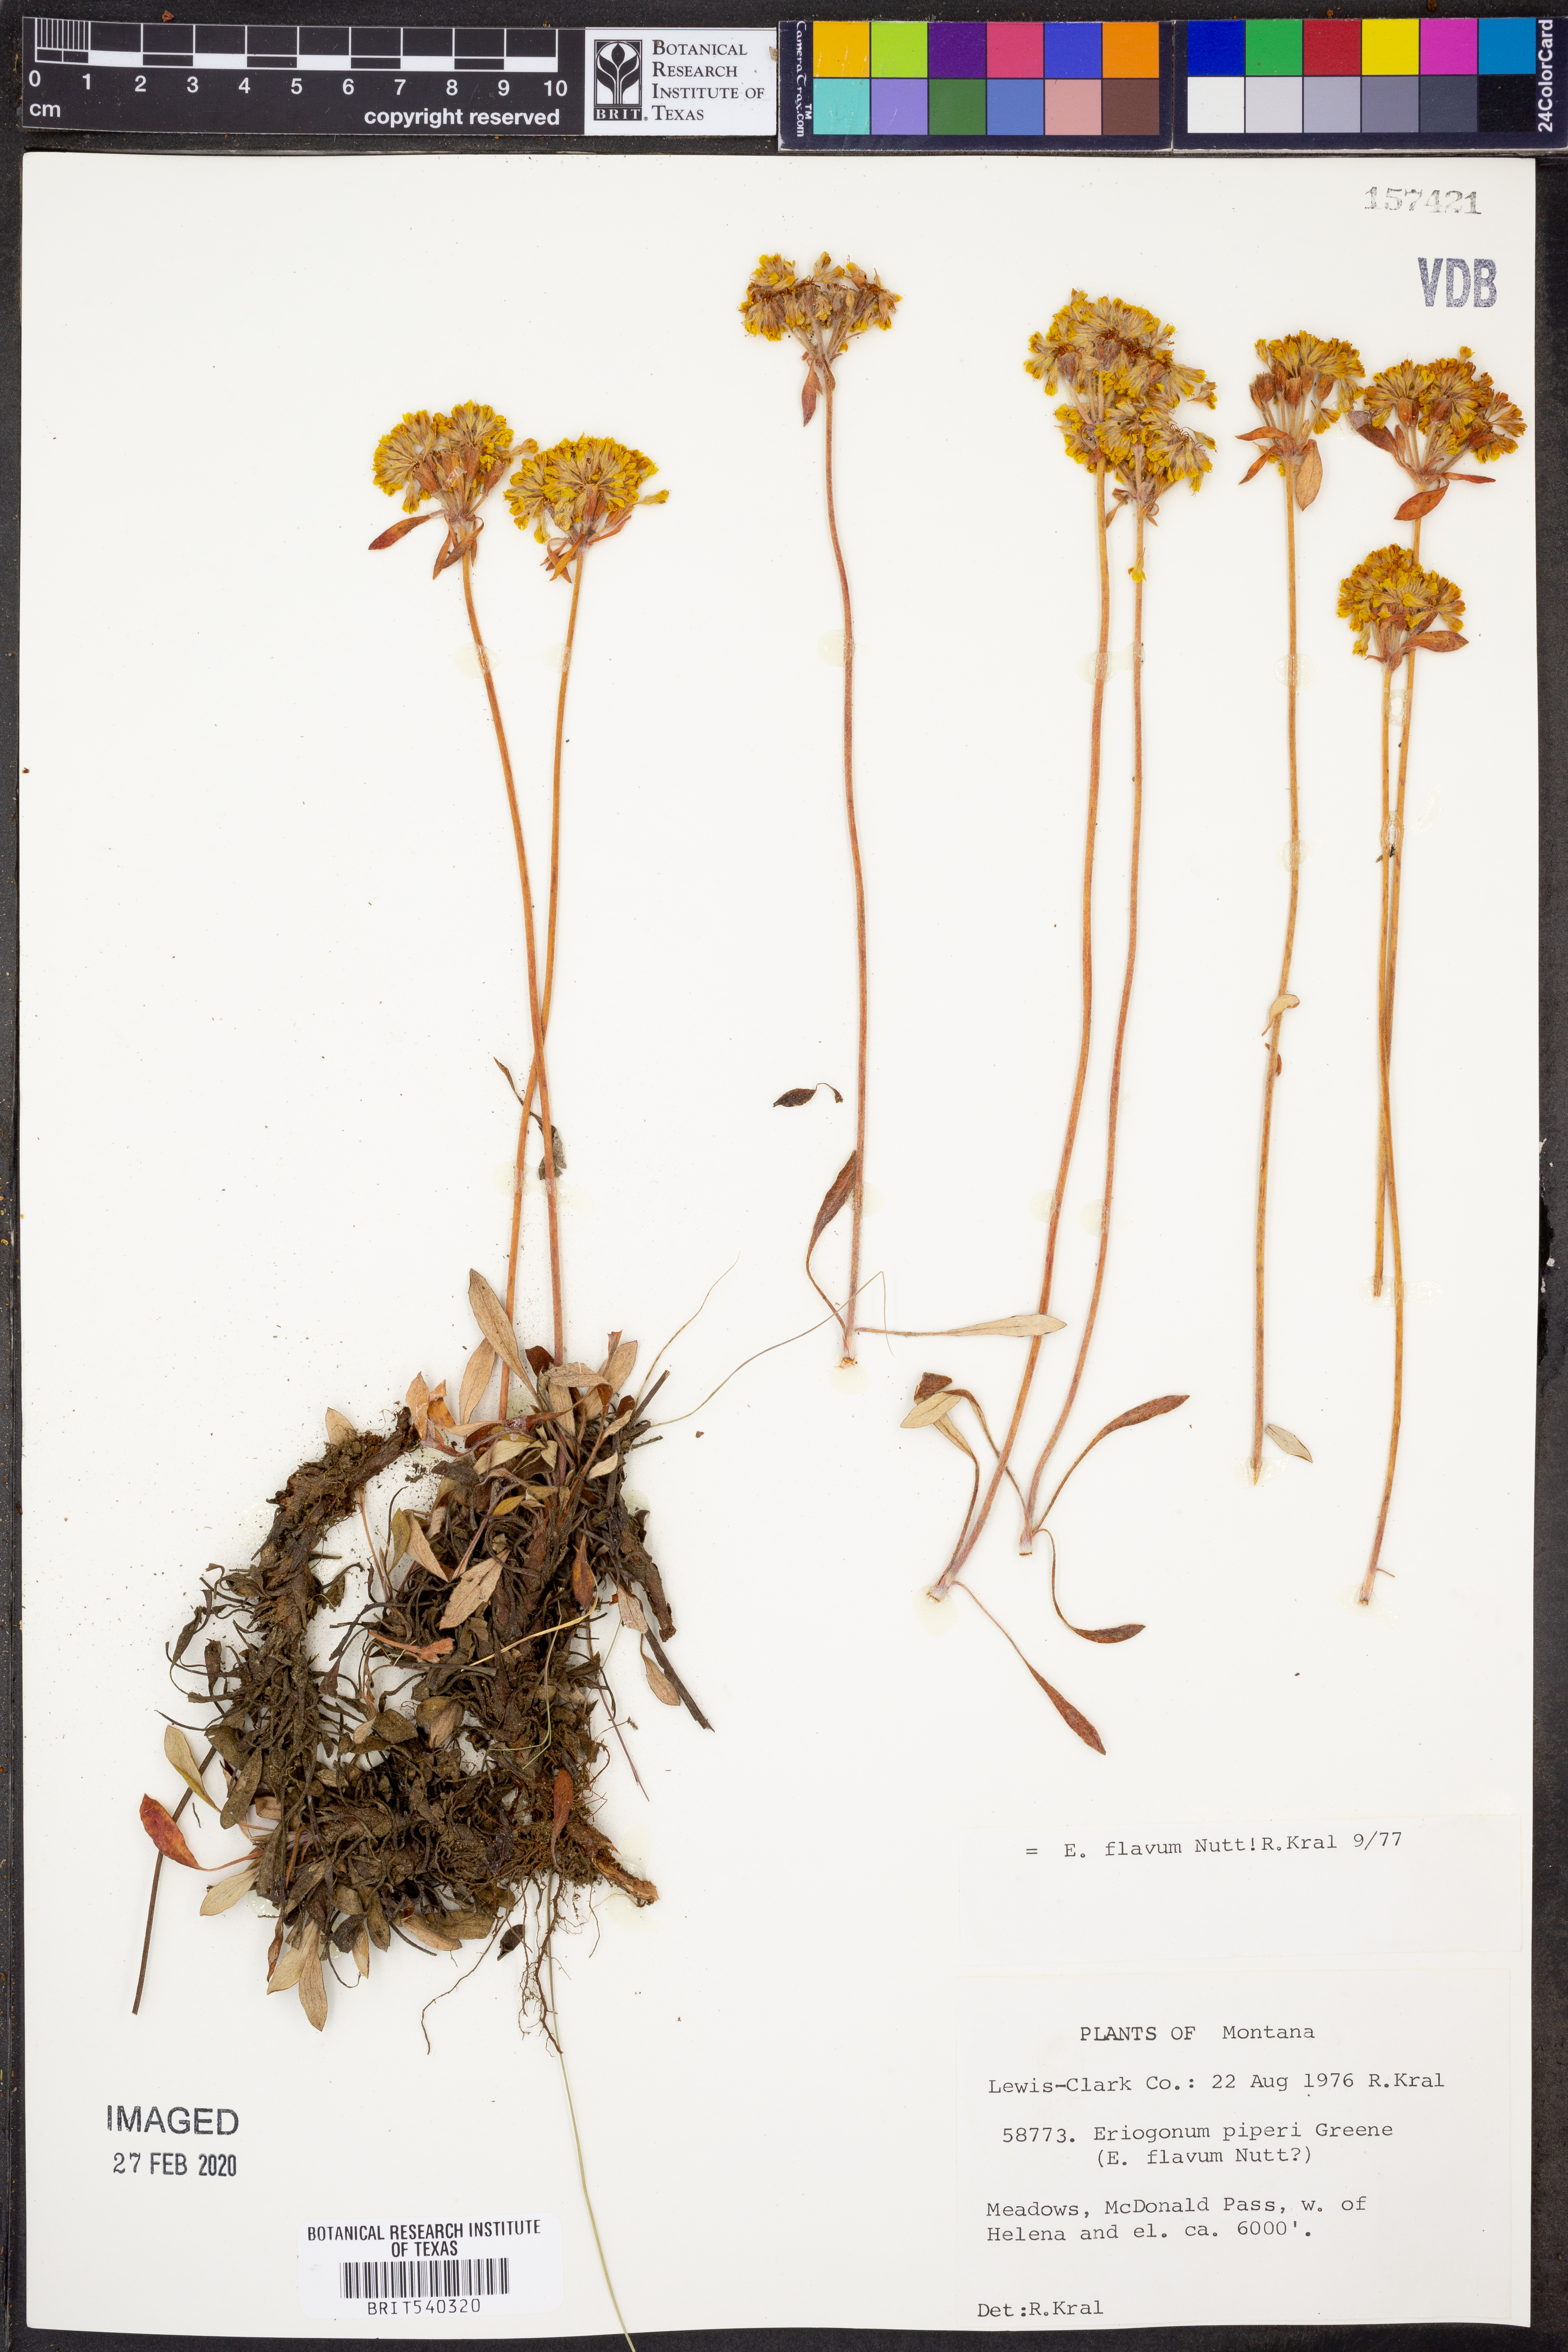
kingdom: Plantae
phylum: Tracheophyta
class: Magnoliopsida
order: Caryophyllales
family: Polygonaceae
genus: Eriogonum
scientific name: Eriogonum flavum
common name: Alpine golden wild buckwheat
